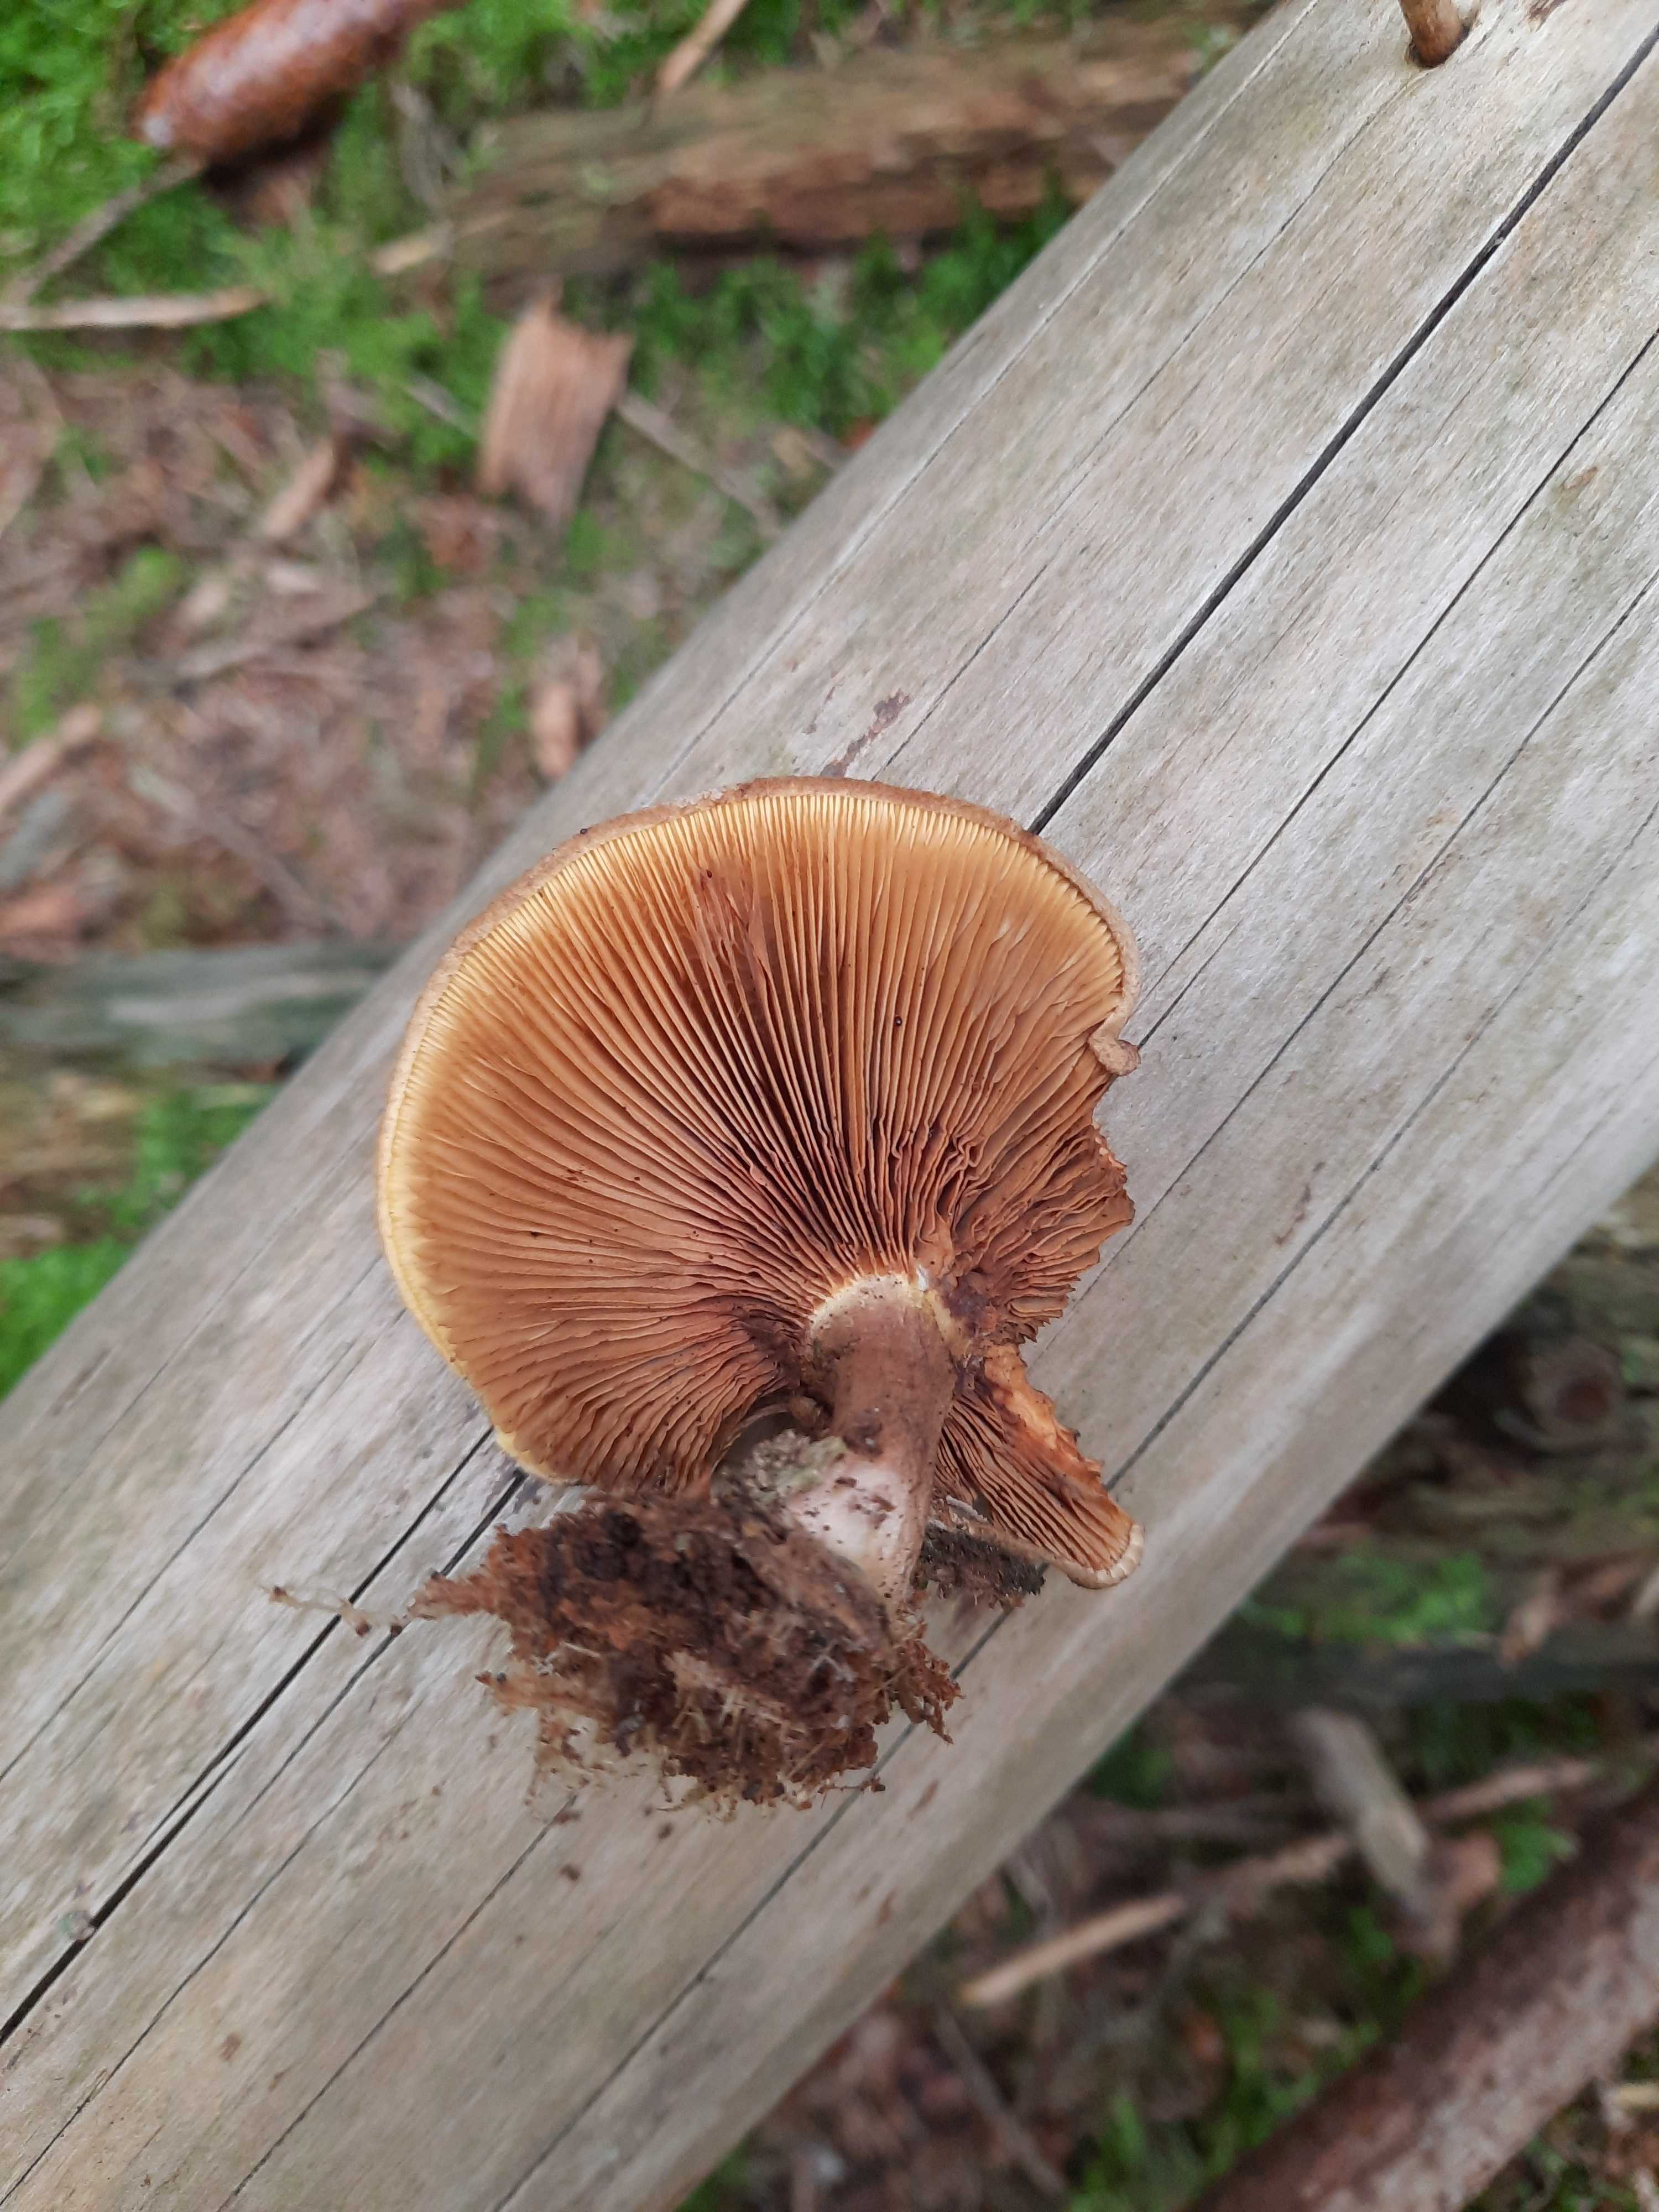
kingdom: Plantae
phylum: Bryophyta
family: Agaricomycetidae
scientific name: Agaricomycetidae
